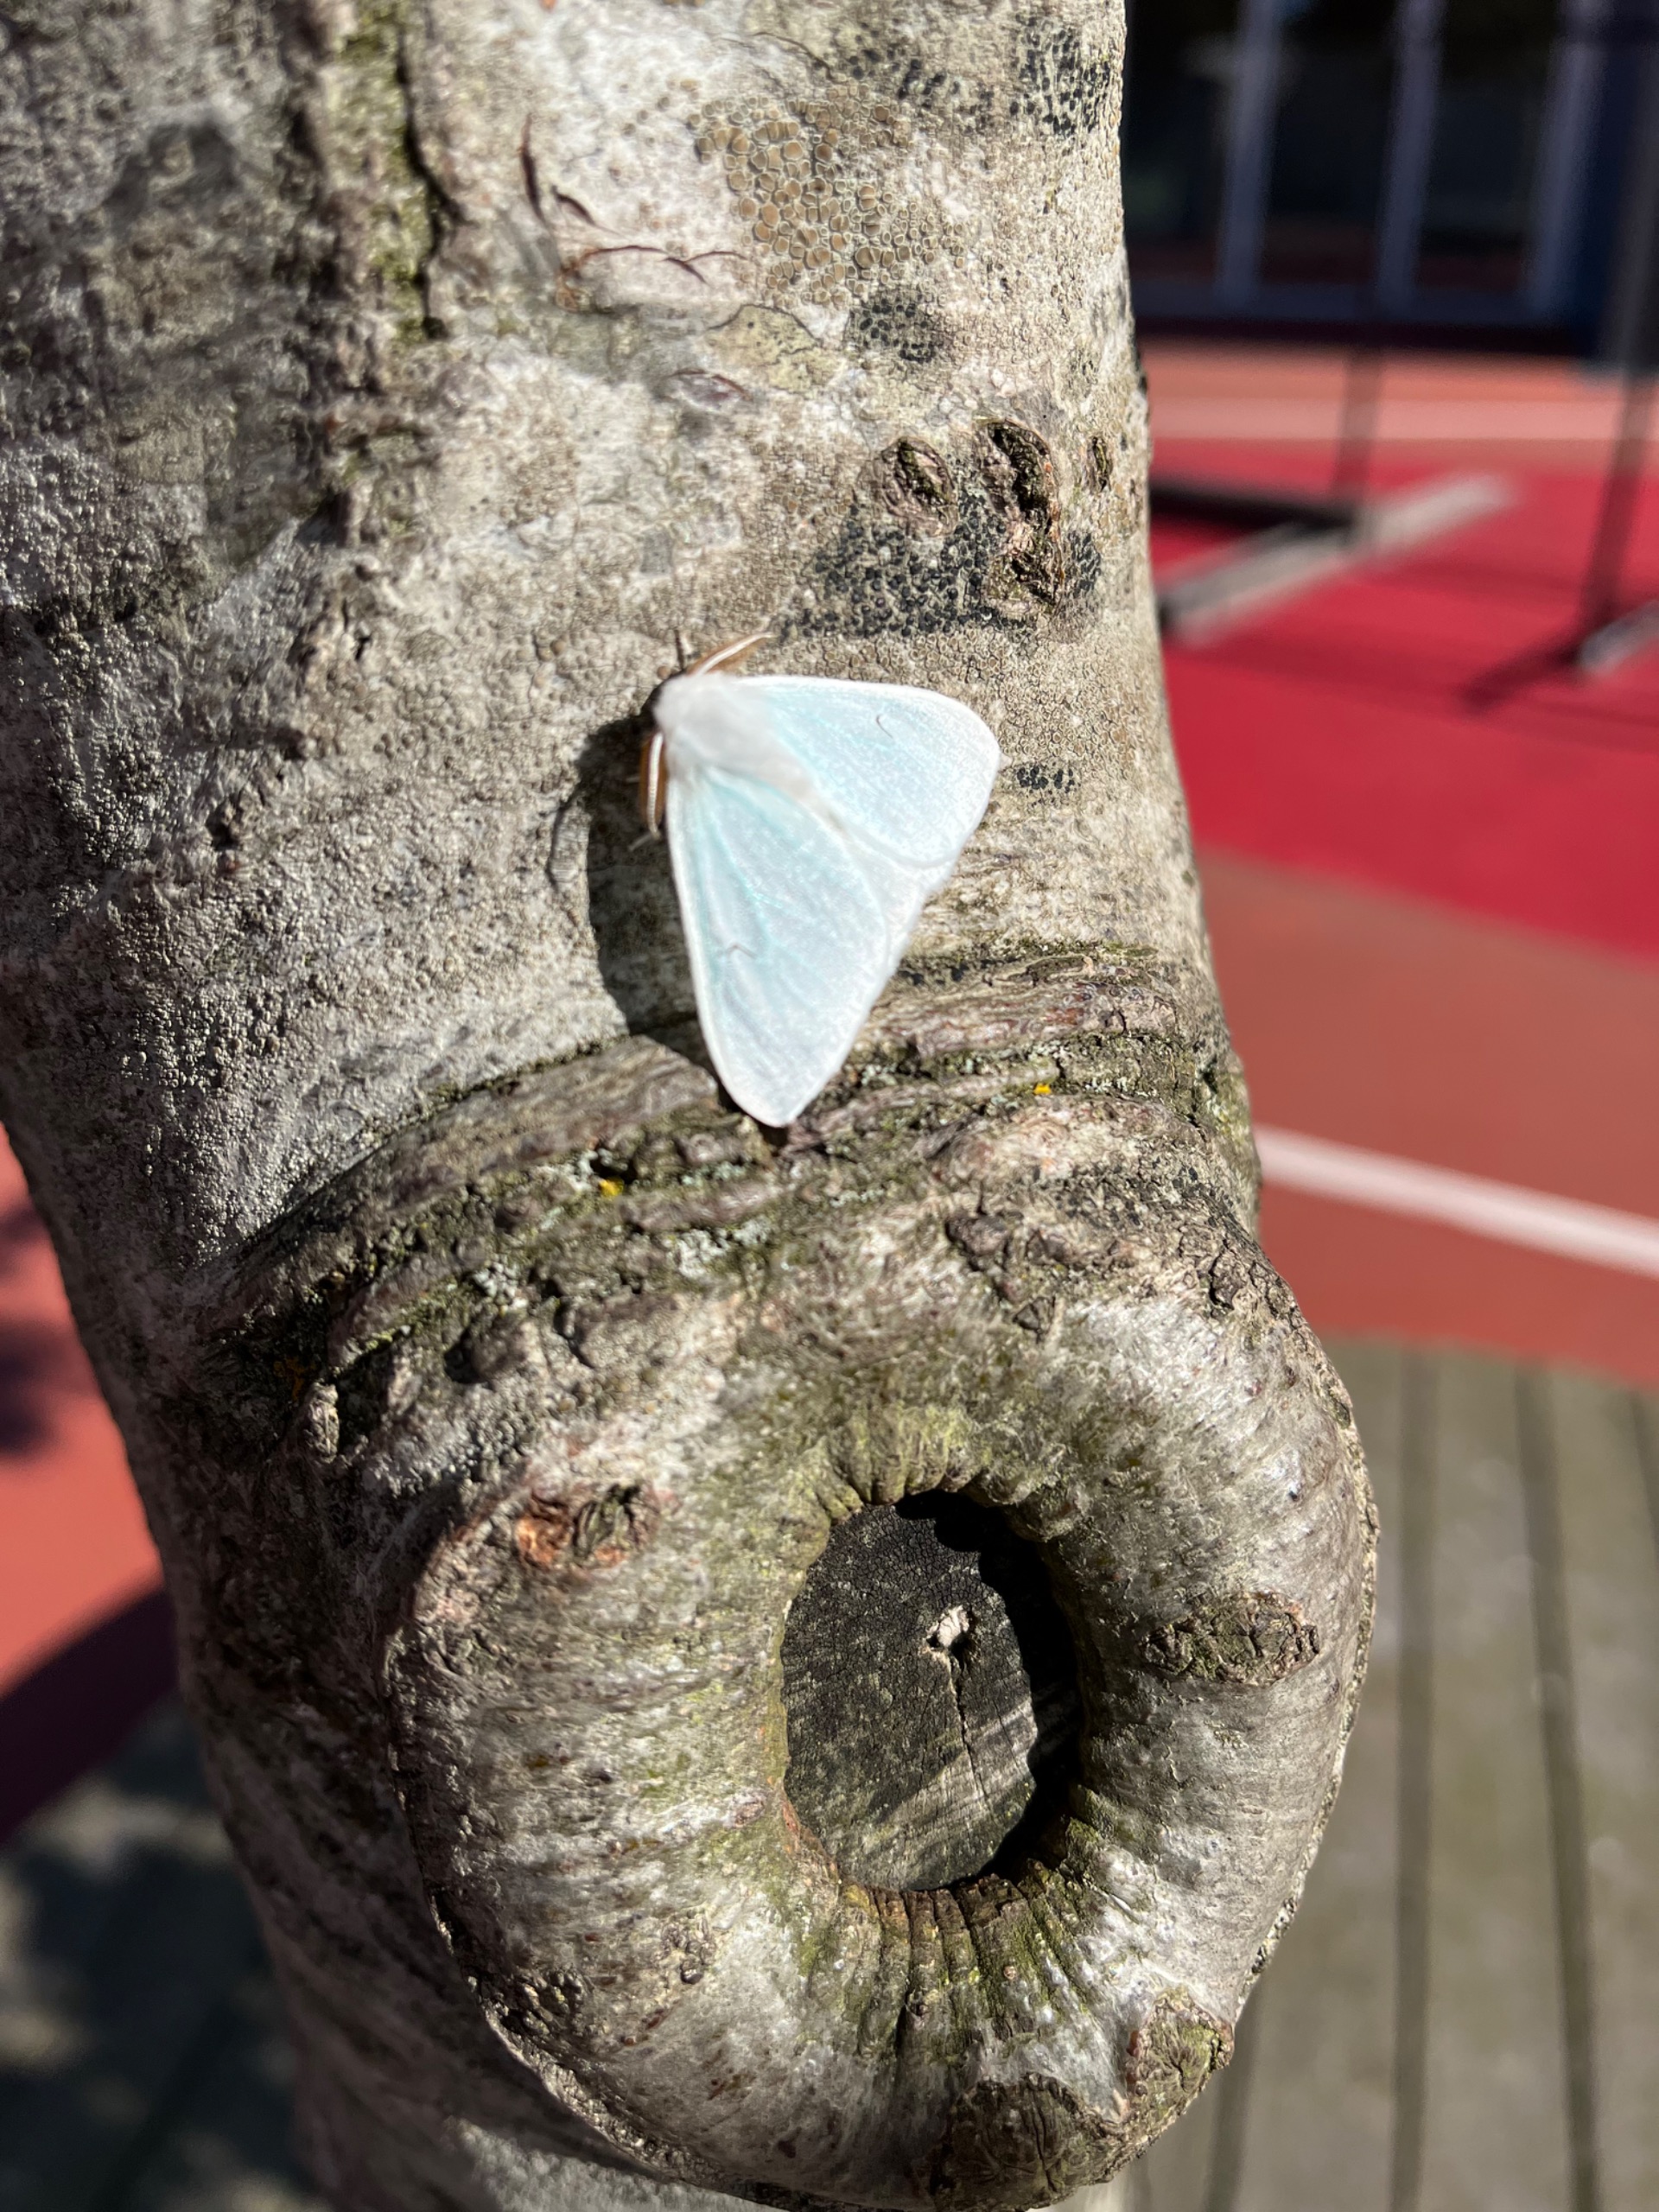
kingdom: Animalia
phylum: Arthropoda
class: Insecta
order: Lepidoptera
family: Erebidae
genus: Arctornis
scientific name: Arctornis l-nigrum
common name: Det sorte l
